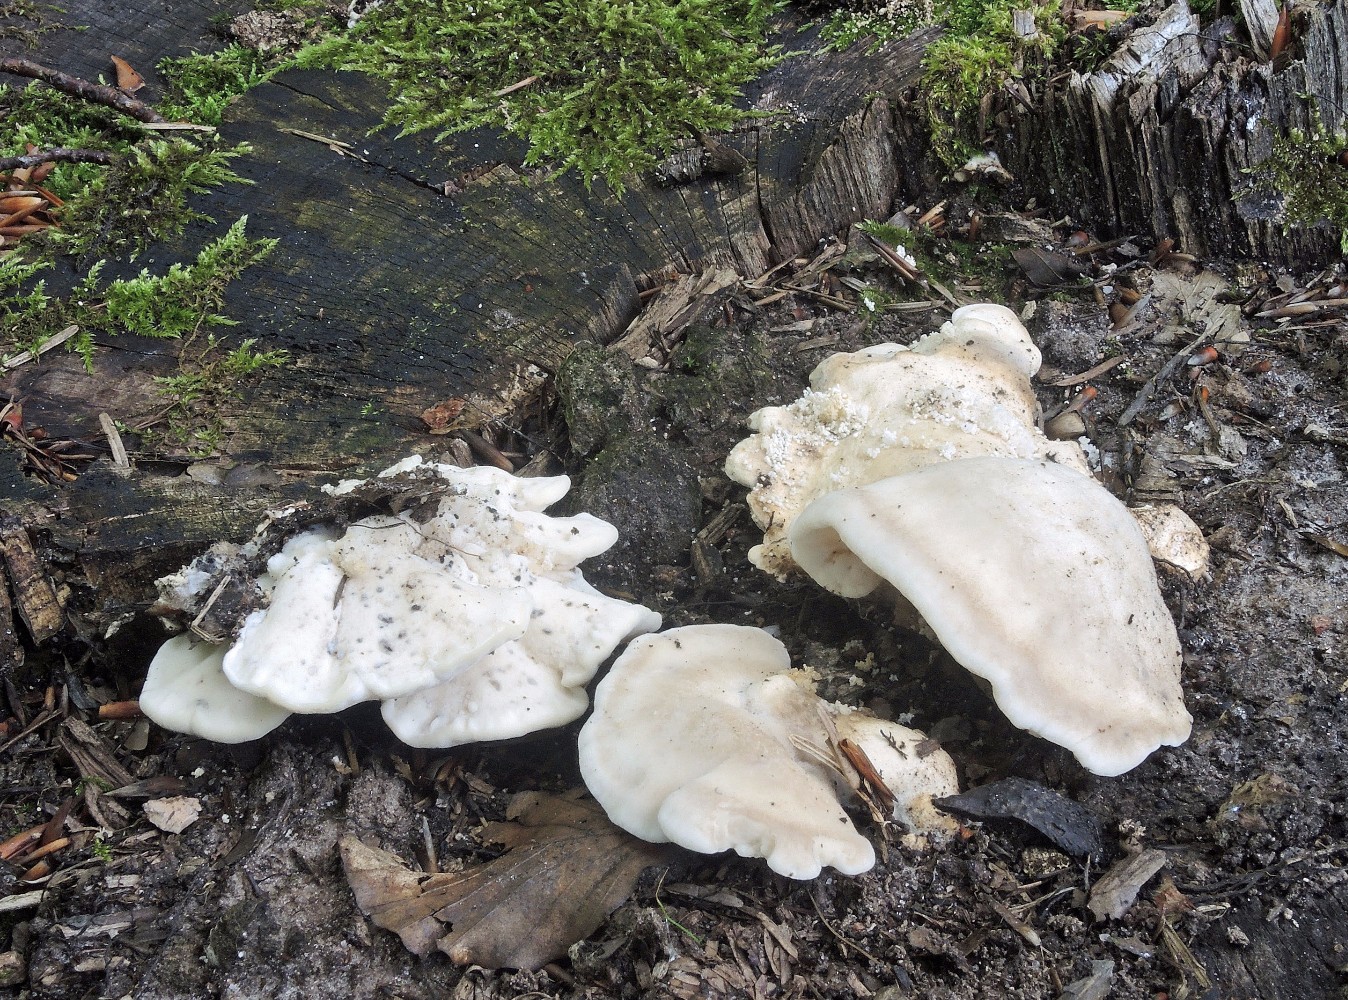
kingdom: Fungi
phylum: Basidiomycota
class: Agaricomycetes
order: Polyporales
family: Incrustoporiaceae
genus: Tyromyces
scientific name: Tyromyces lacteus
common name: mælkehvid kødporesvamp
